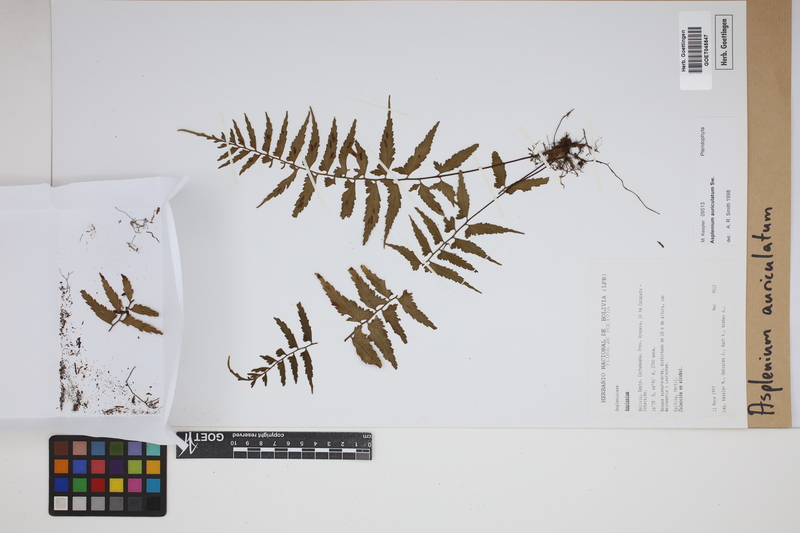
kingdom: Plantae
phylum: Tracheophyta
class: Polypodiopsida
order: Polypodiales
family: Aspleniaceae
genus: Asplenium
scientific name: Asplenium auriculatum
